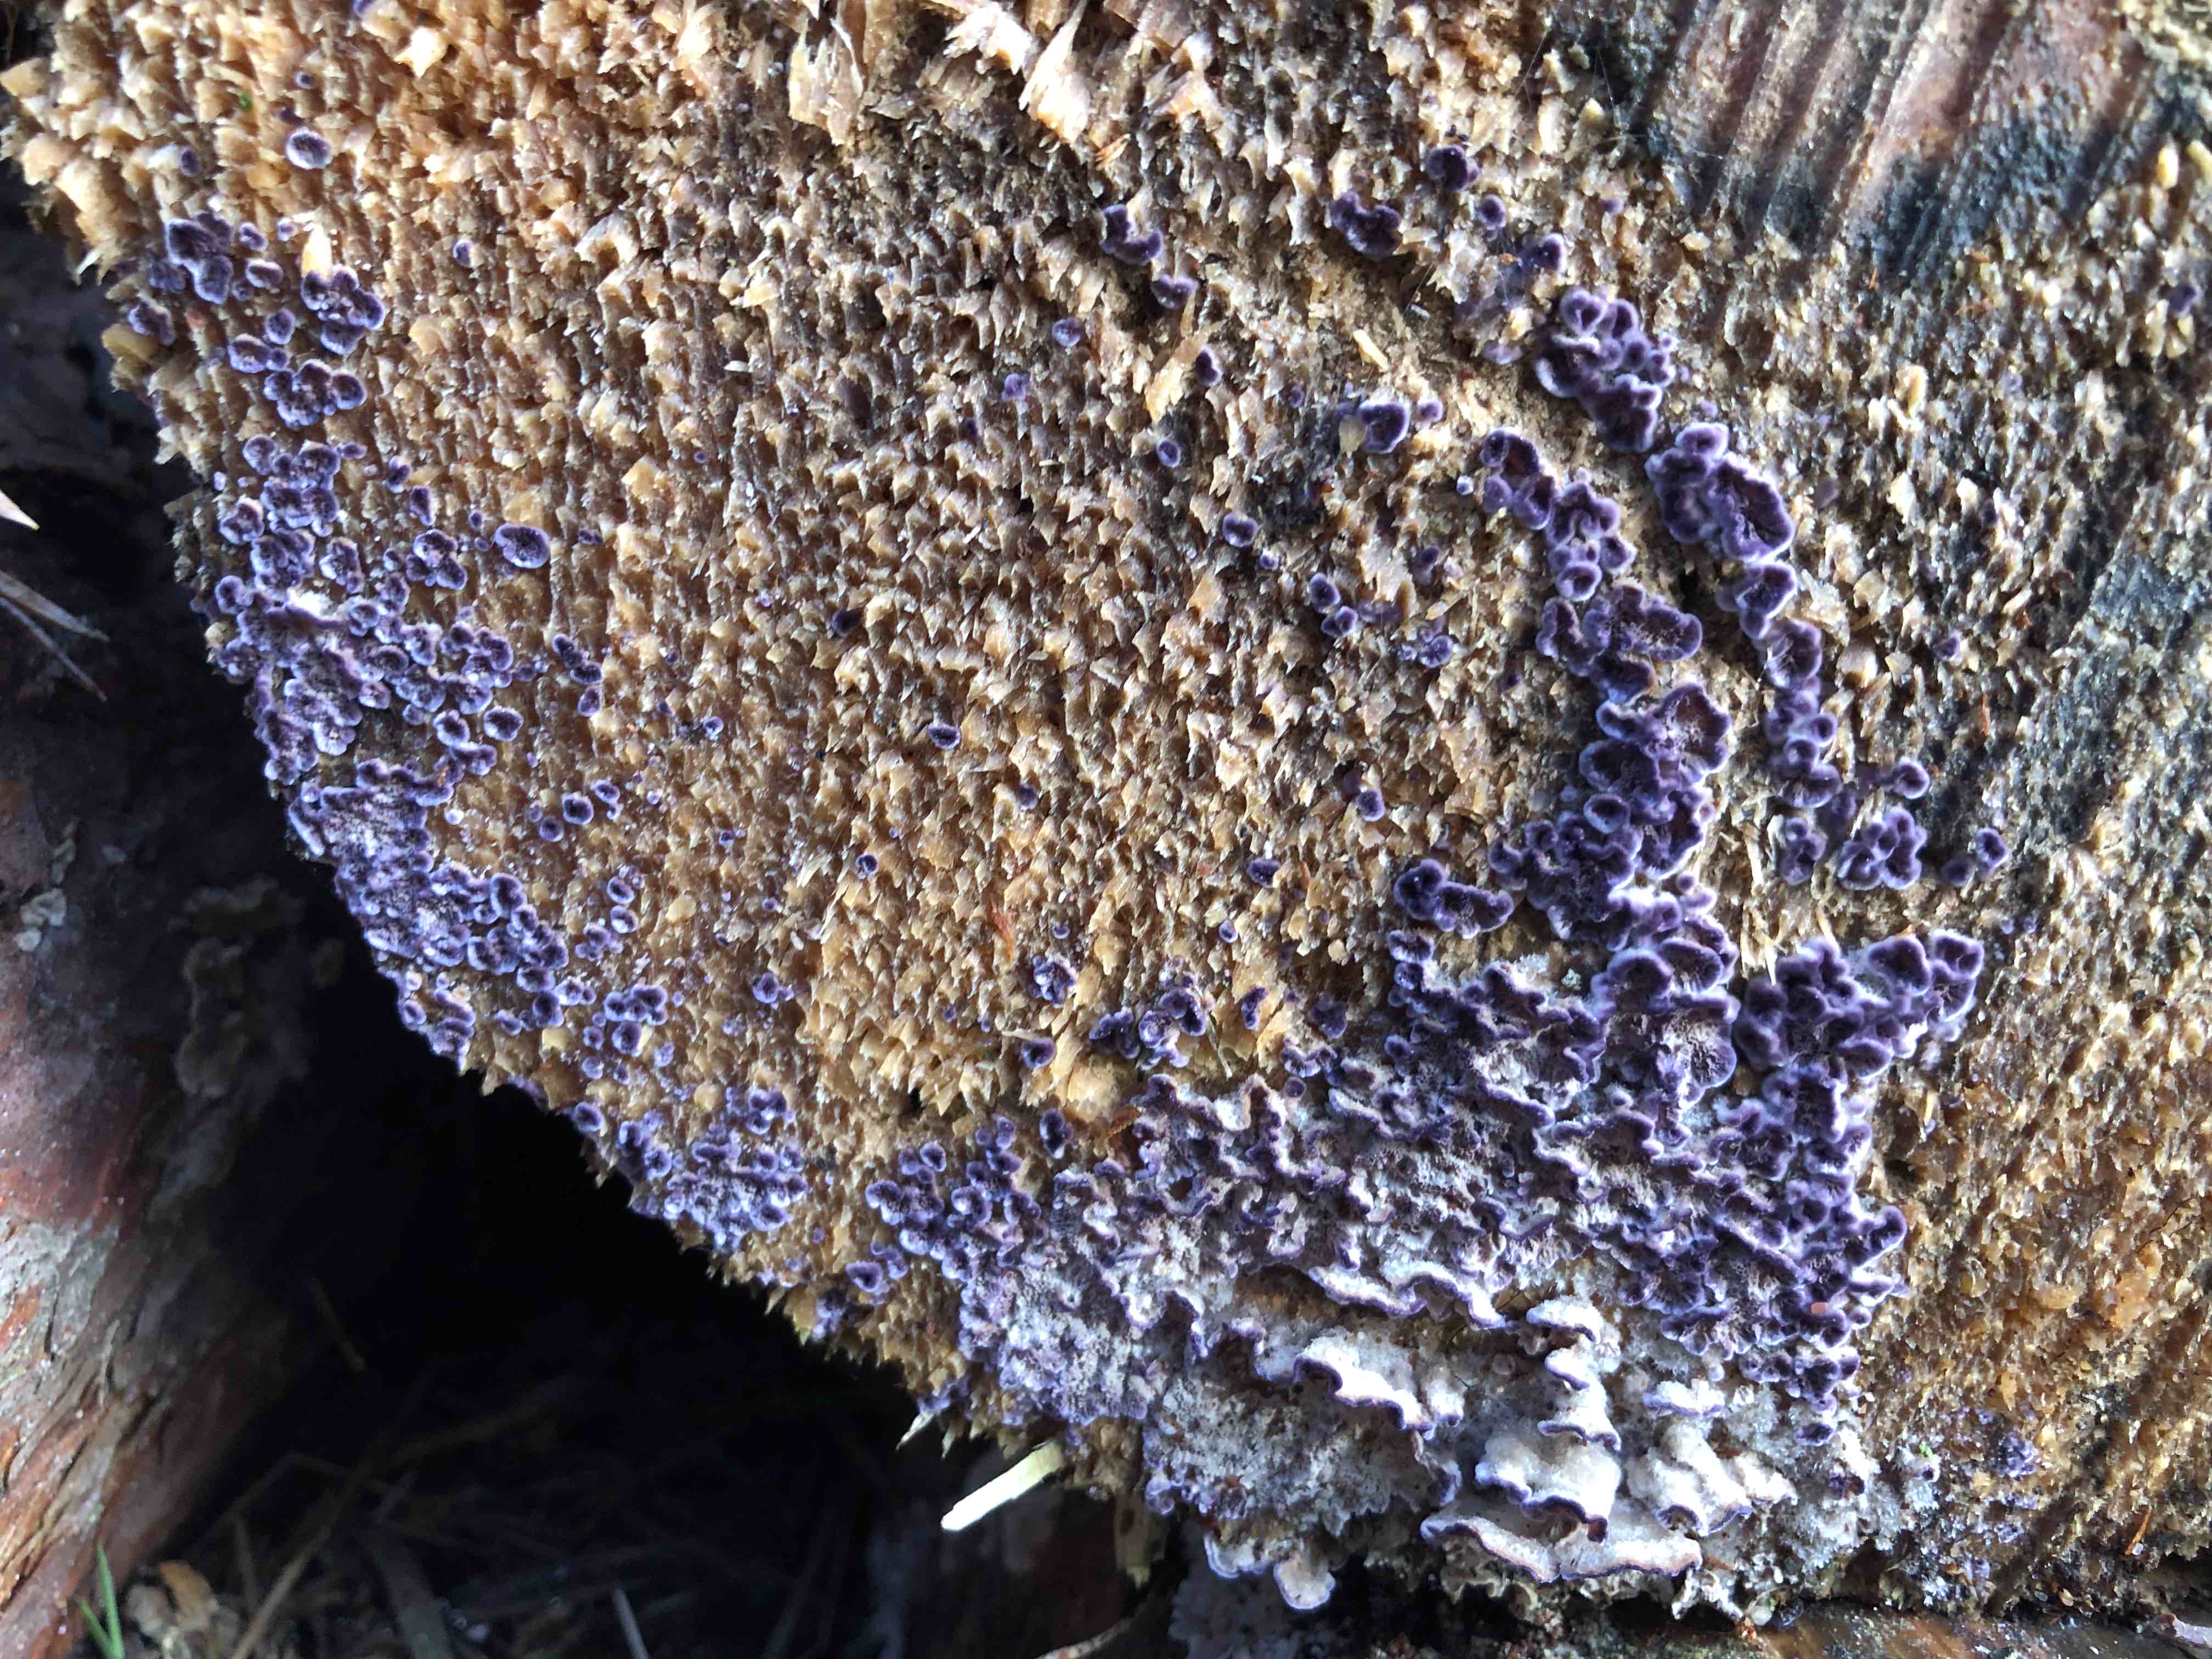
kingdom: Fungi
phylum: Basidiomycota
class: Agaricomycetes
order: Hymenochaetales
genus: Trichaptum
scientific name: Trichaptum abietinum
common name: almindelig violporesvamp
